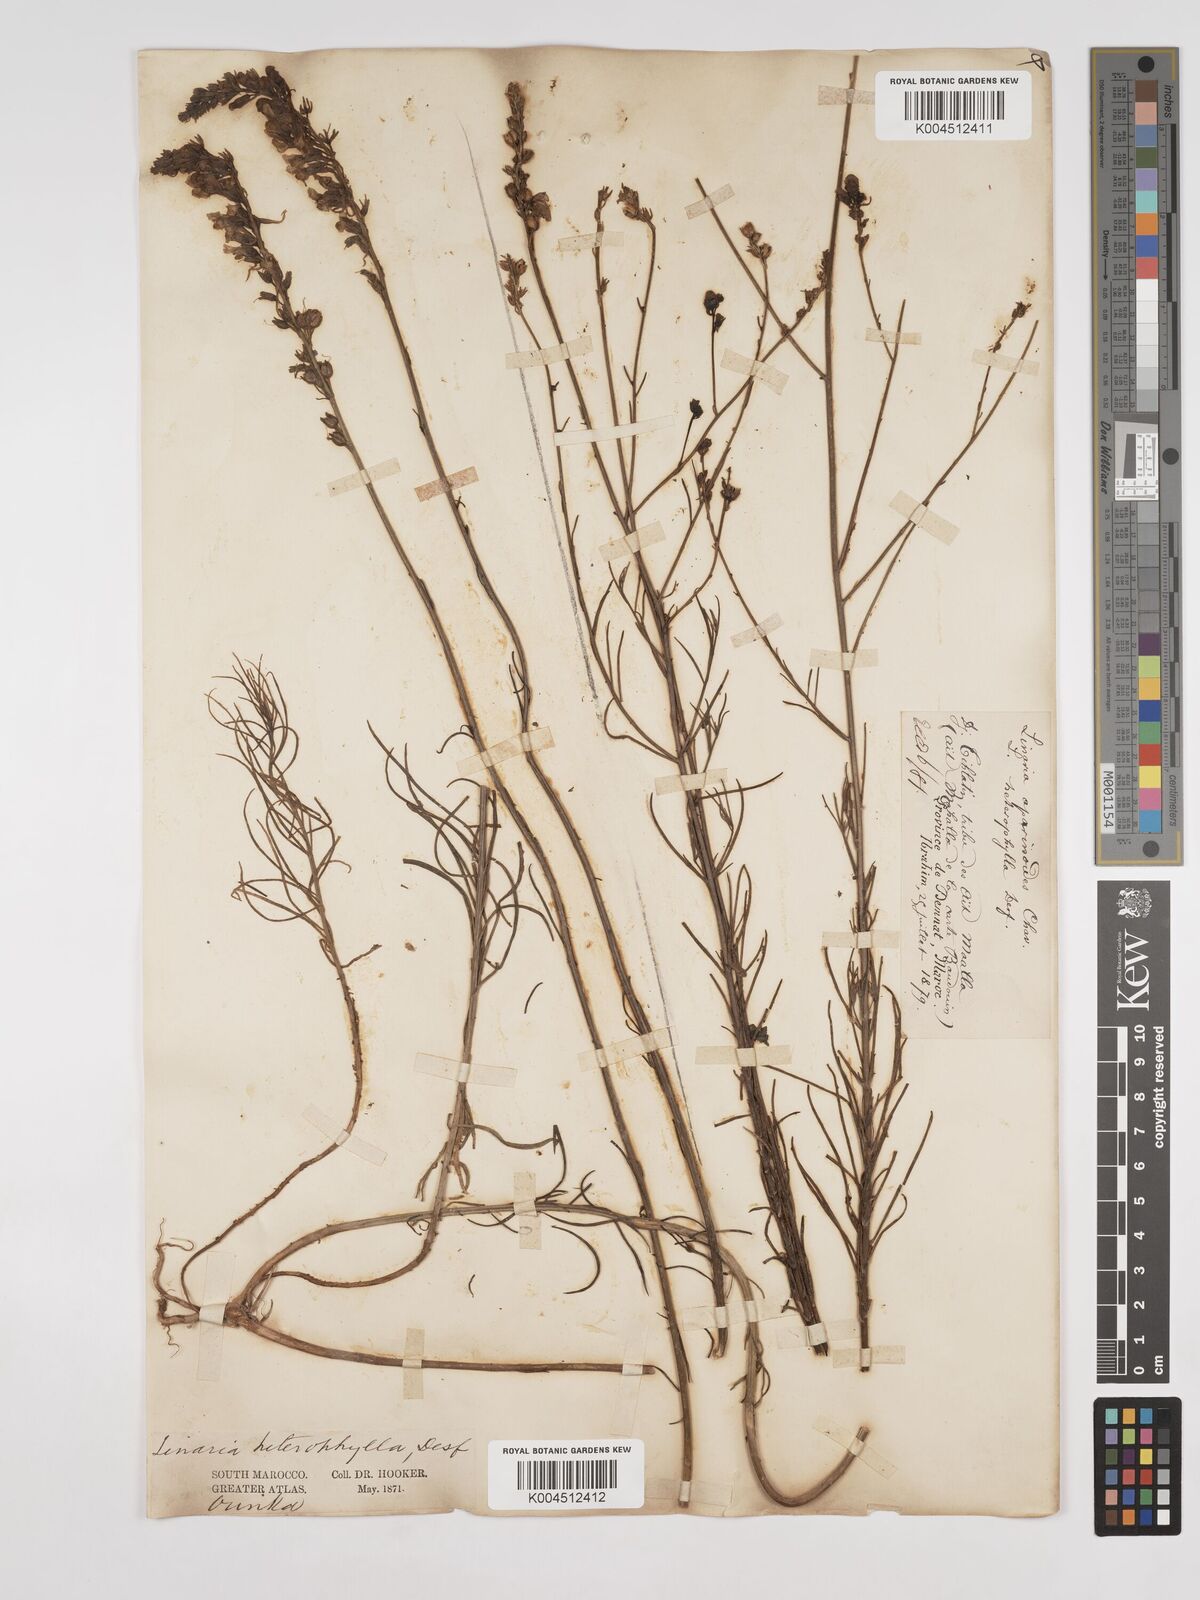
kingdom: Plantae
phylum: Tracheophyta
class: Magnoliopsida
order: Lamiales
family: Plantaginaceae
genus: Linaria
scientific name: Linaria multicaulis
